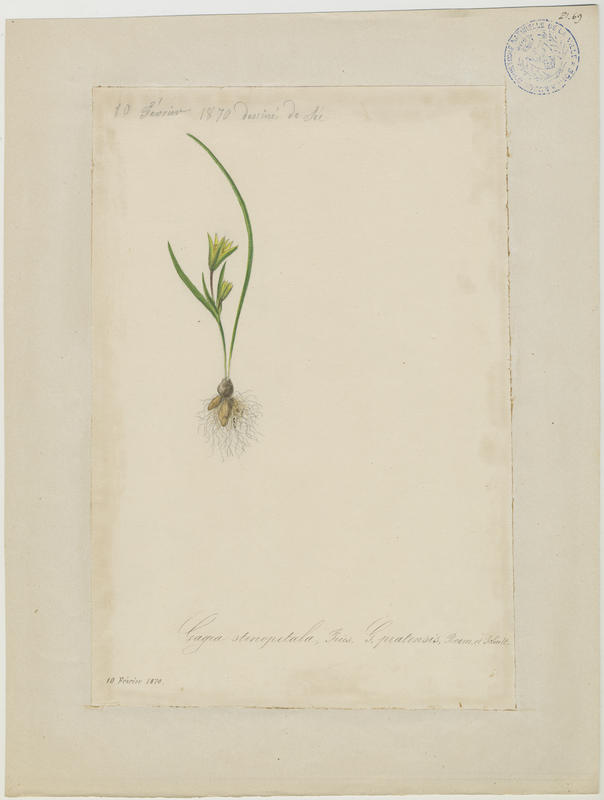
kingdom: Plantae
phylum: Tracheophyta
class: Liliopsida
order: Liliales
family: Liliaceae
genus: Gagea
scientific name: Gagea pratensis
